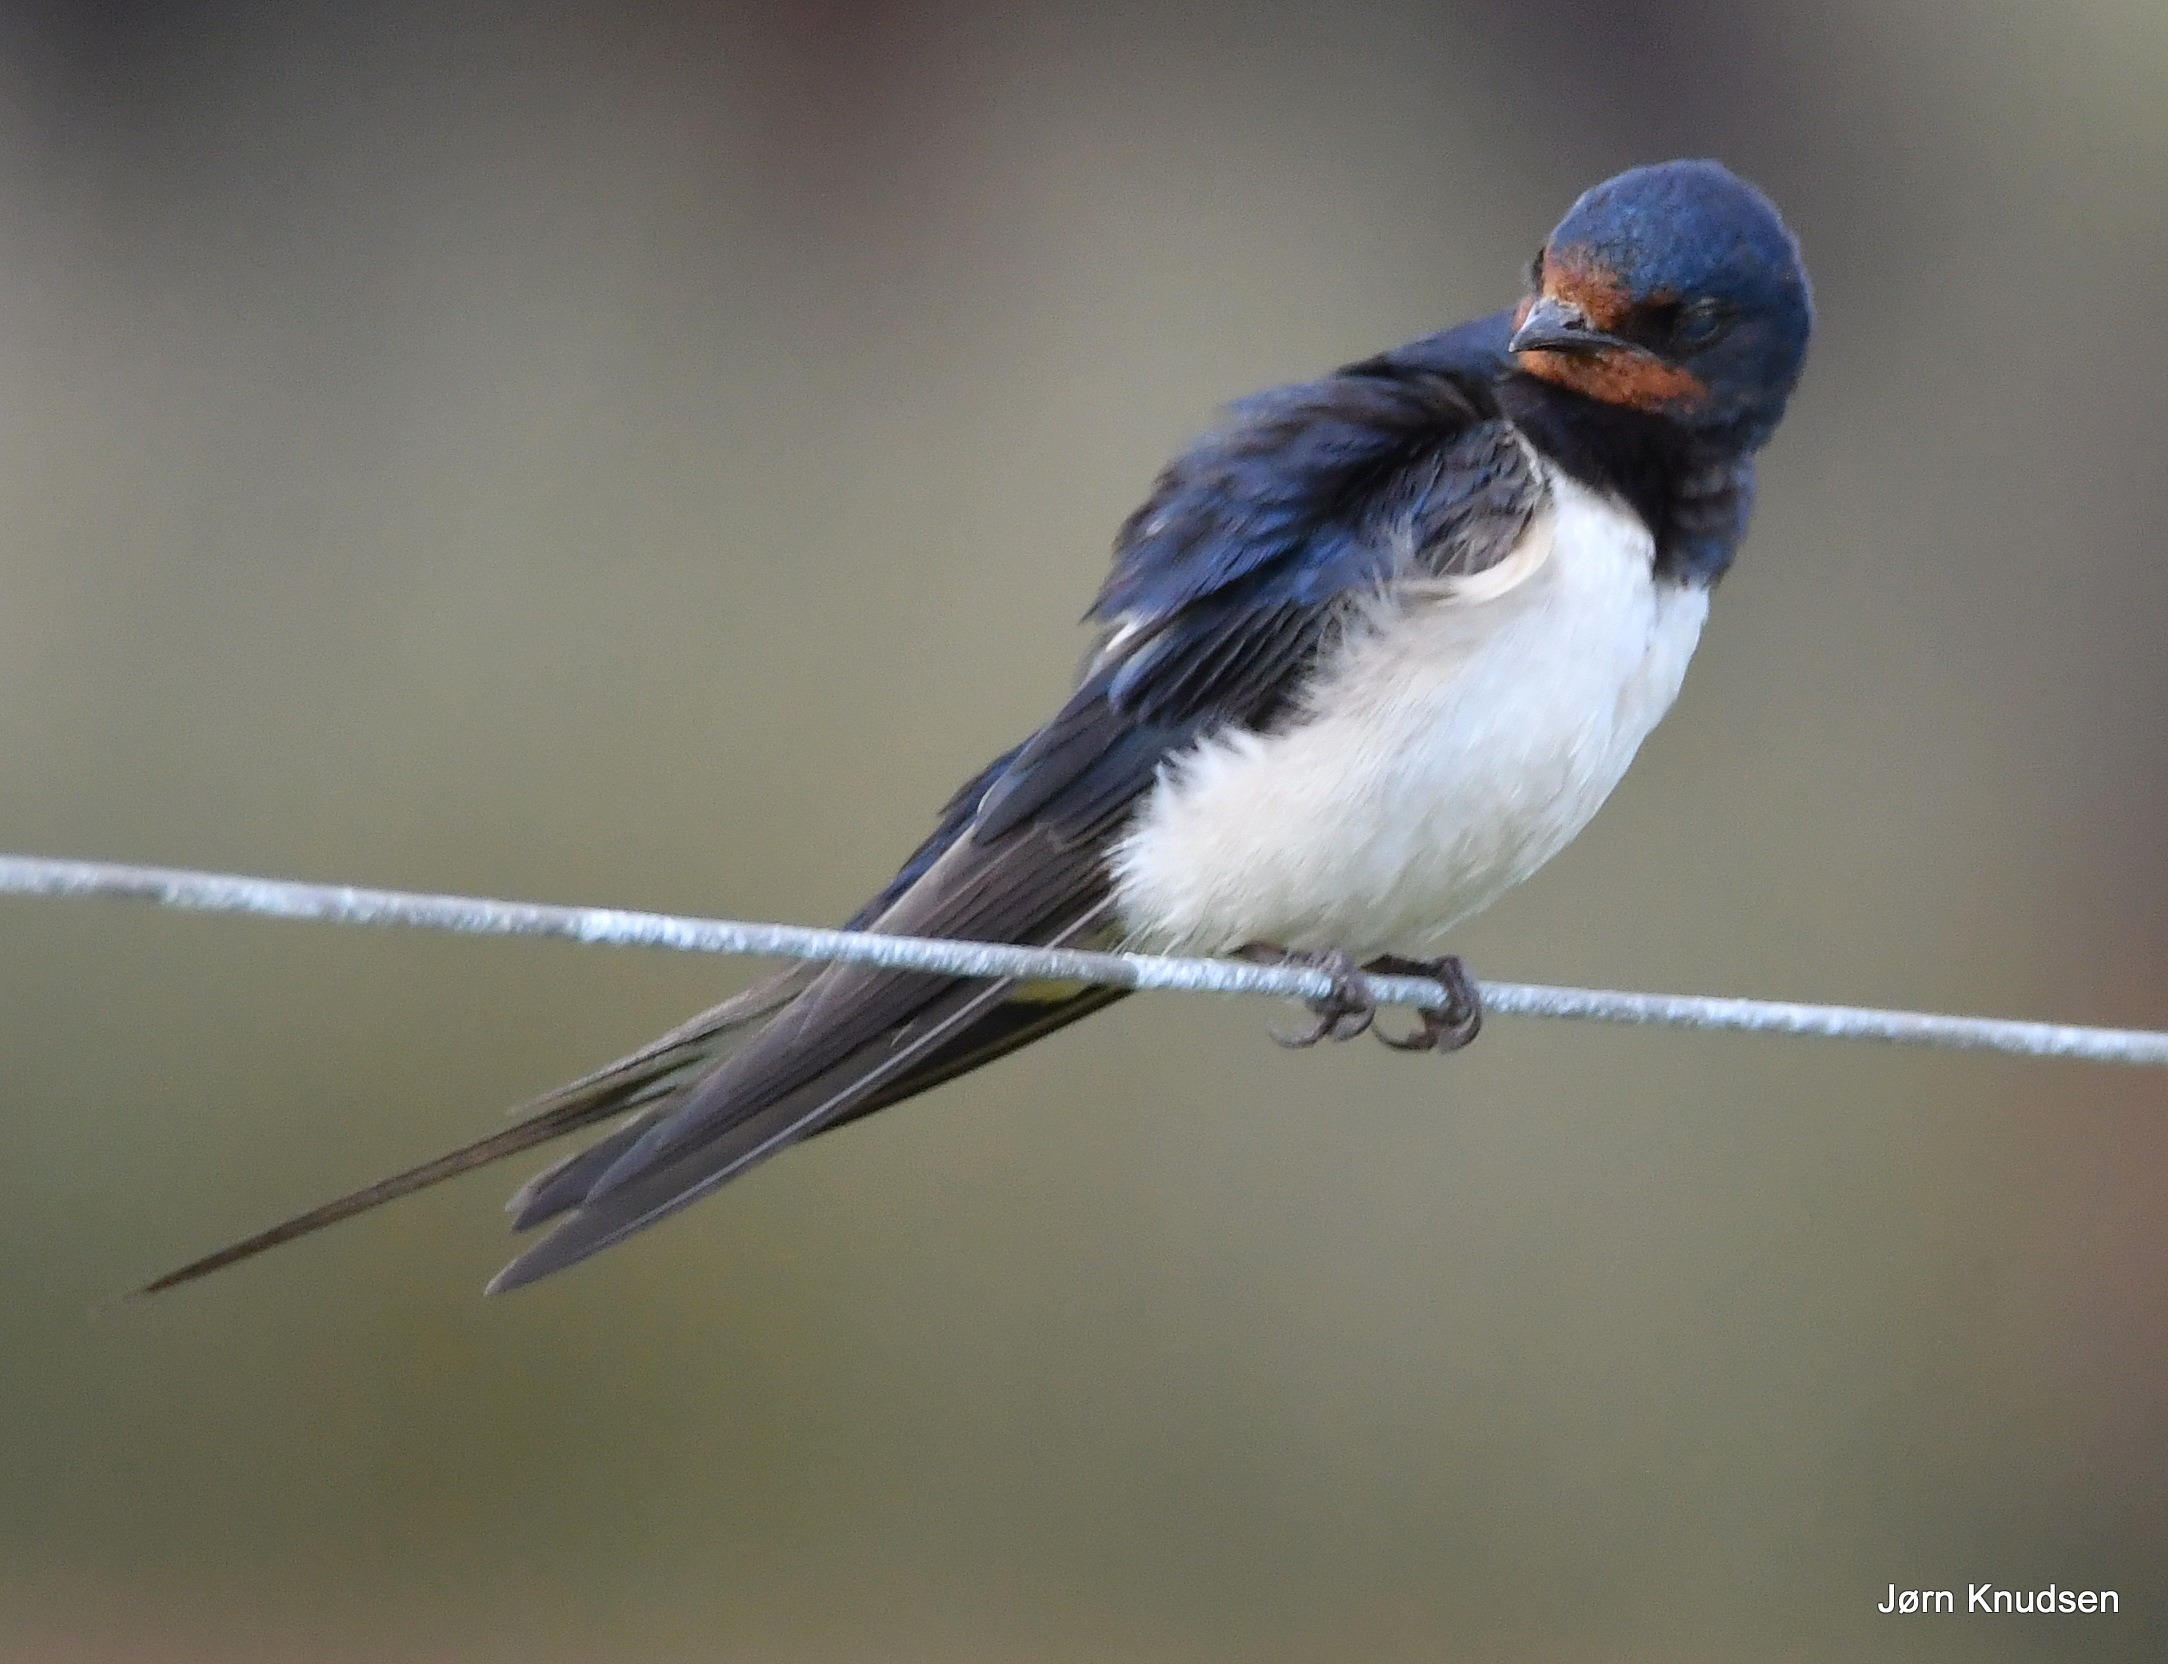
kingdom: Animalia
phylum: Chordata
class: Aves
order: Passeriformes
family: Hirundinidae
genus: Hirundo
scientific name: Hirundo rustica
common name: Landsvale
